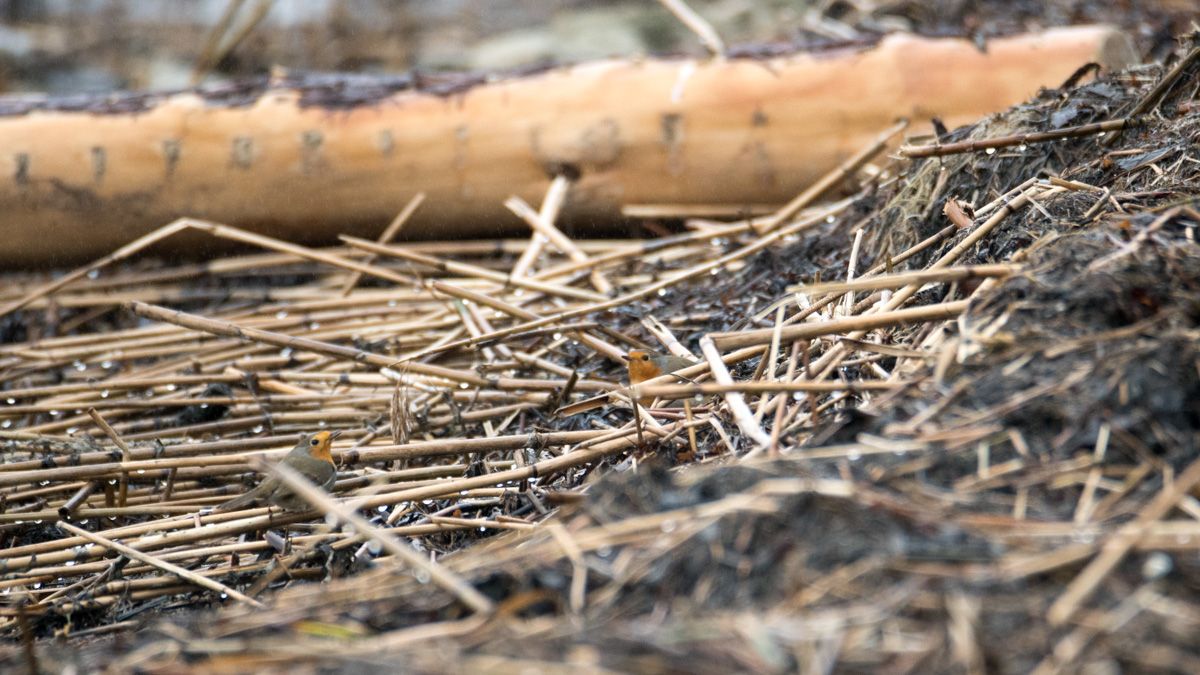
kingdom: Animalia
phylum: Chordata
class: Aves
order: Passeriformes
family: Muscicapidae
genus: Erithacus
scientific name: Erithacus rubecula
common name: European robin
